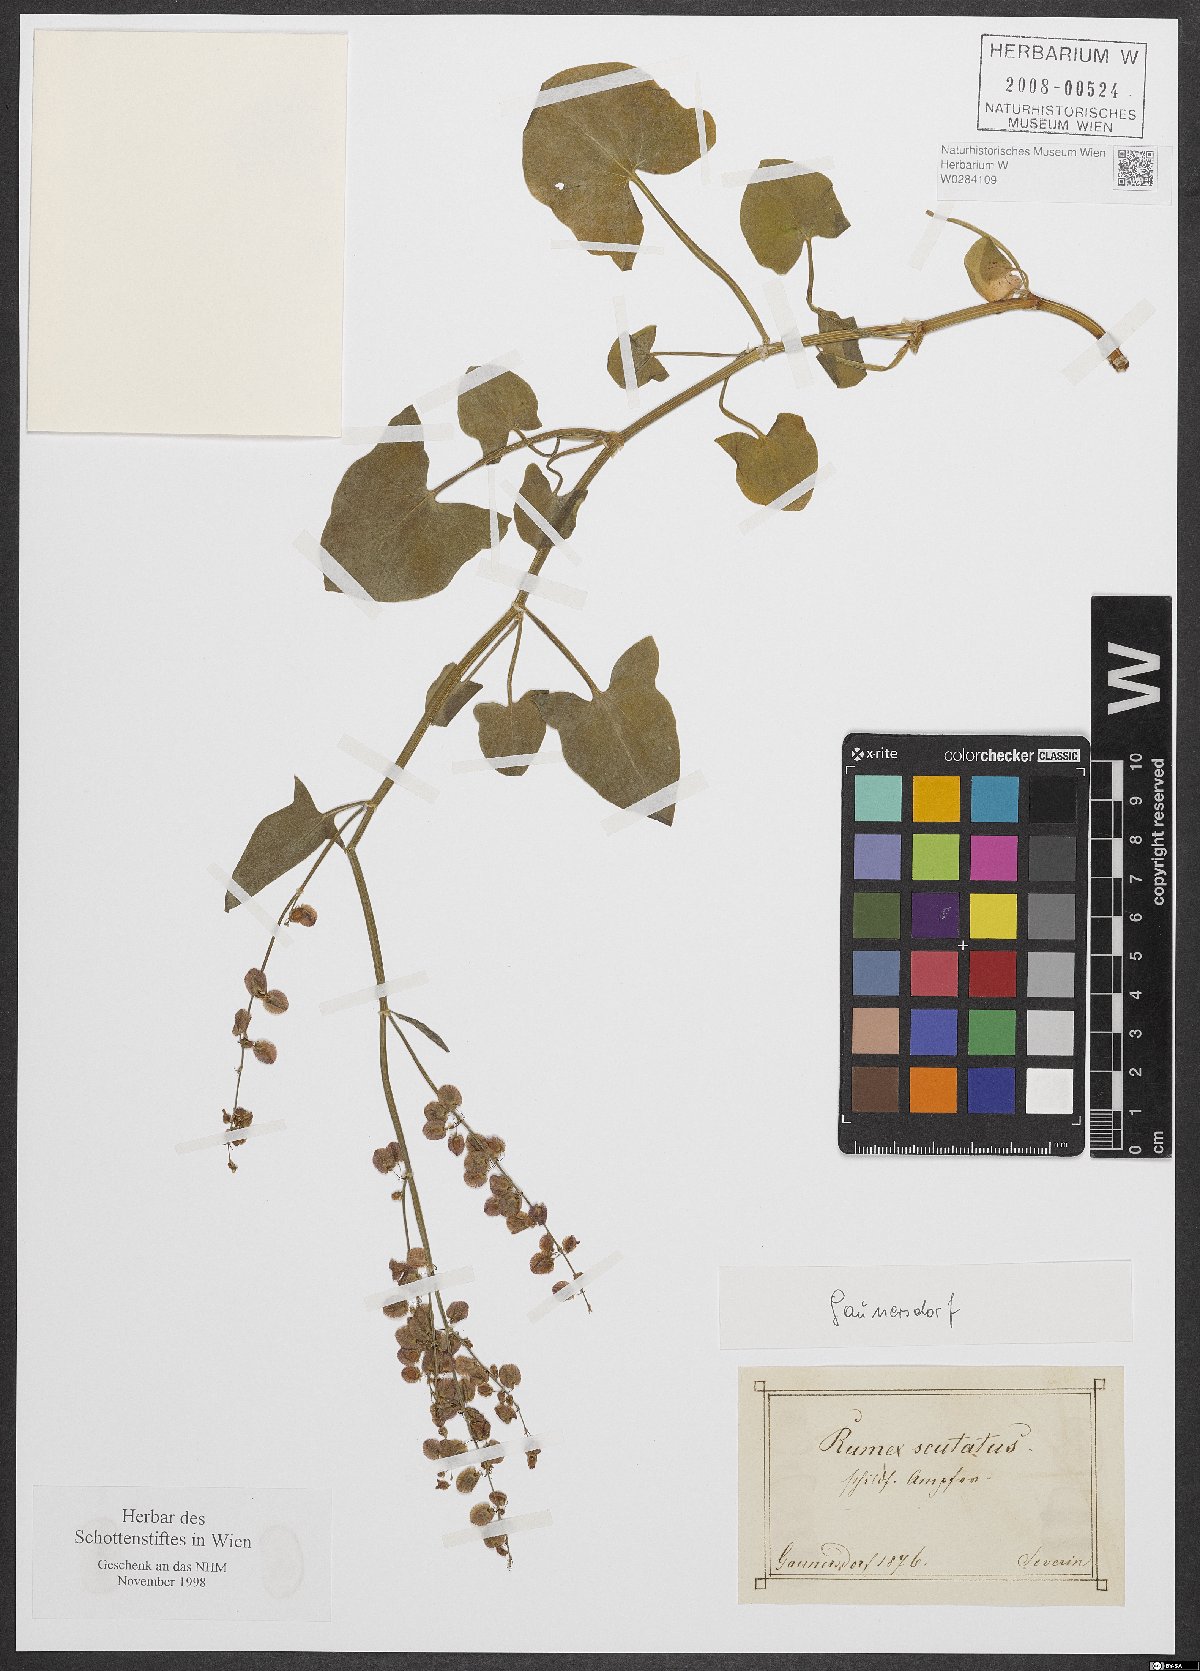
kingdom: Plantae
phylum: Tracheophyta
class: Magnoliopsida
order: Caryophyllales
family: Polygonaceae
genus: Rumex
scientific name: Rumex scutatus
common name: French sorrel
